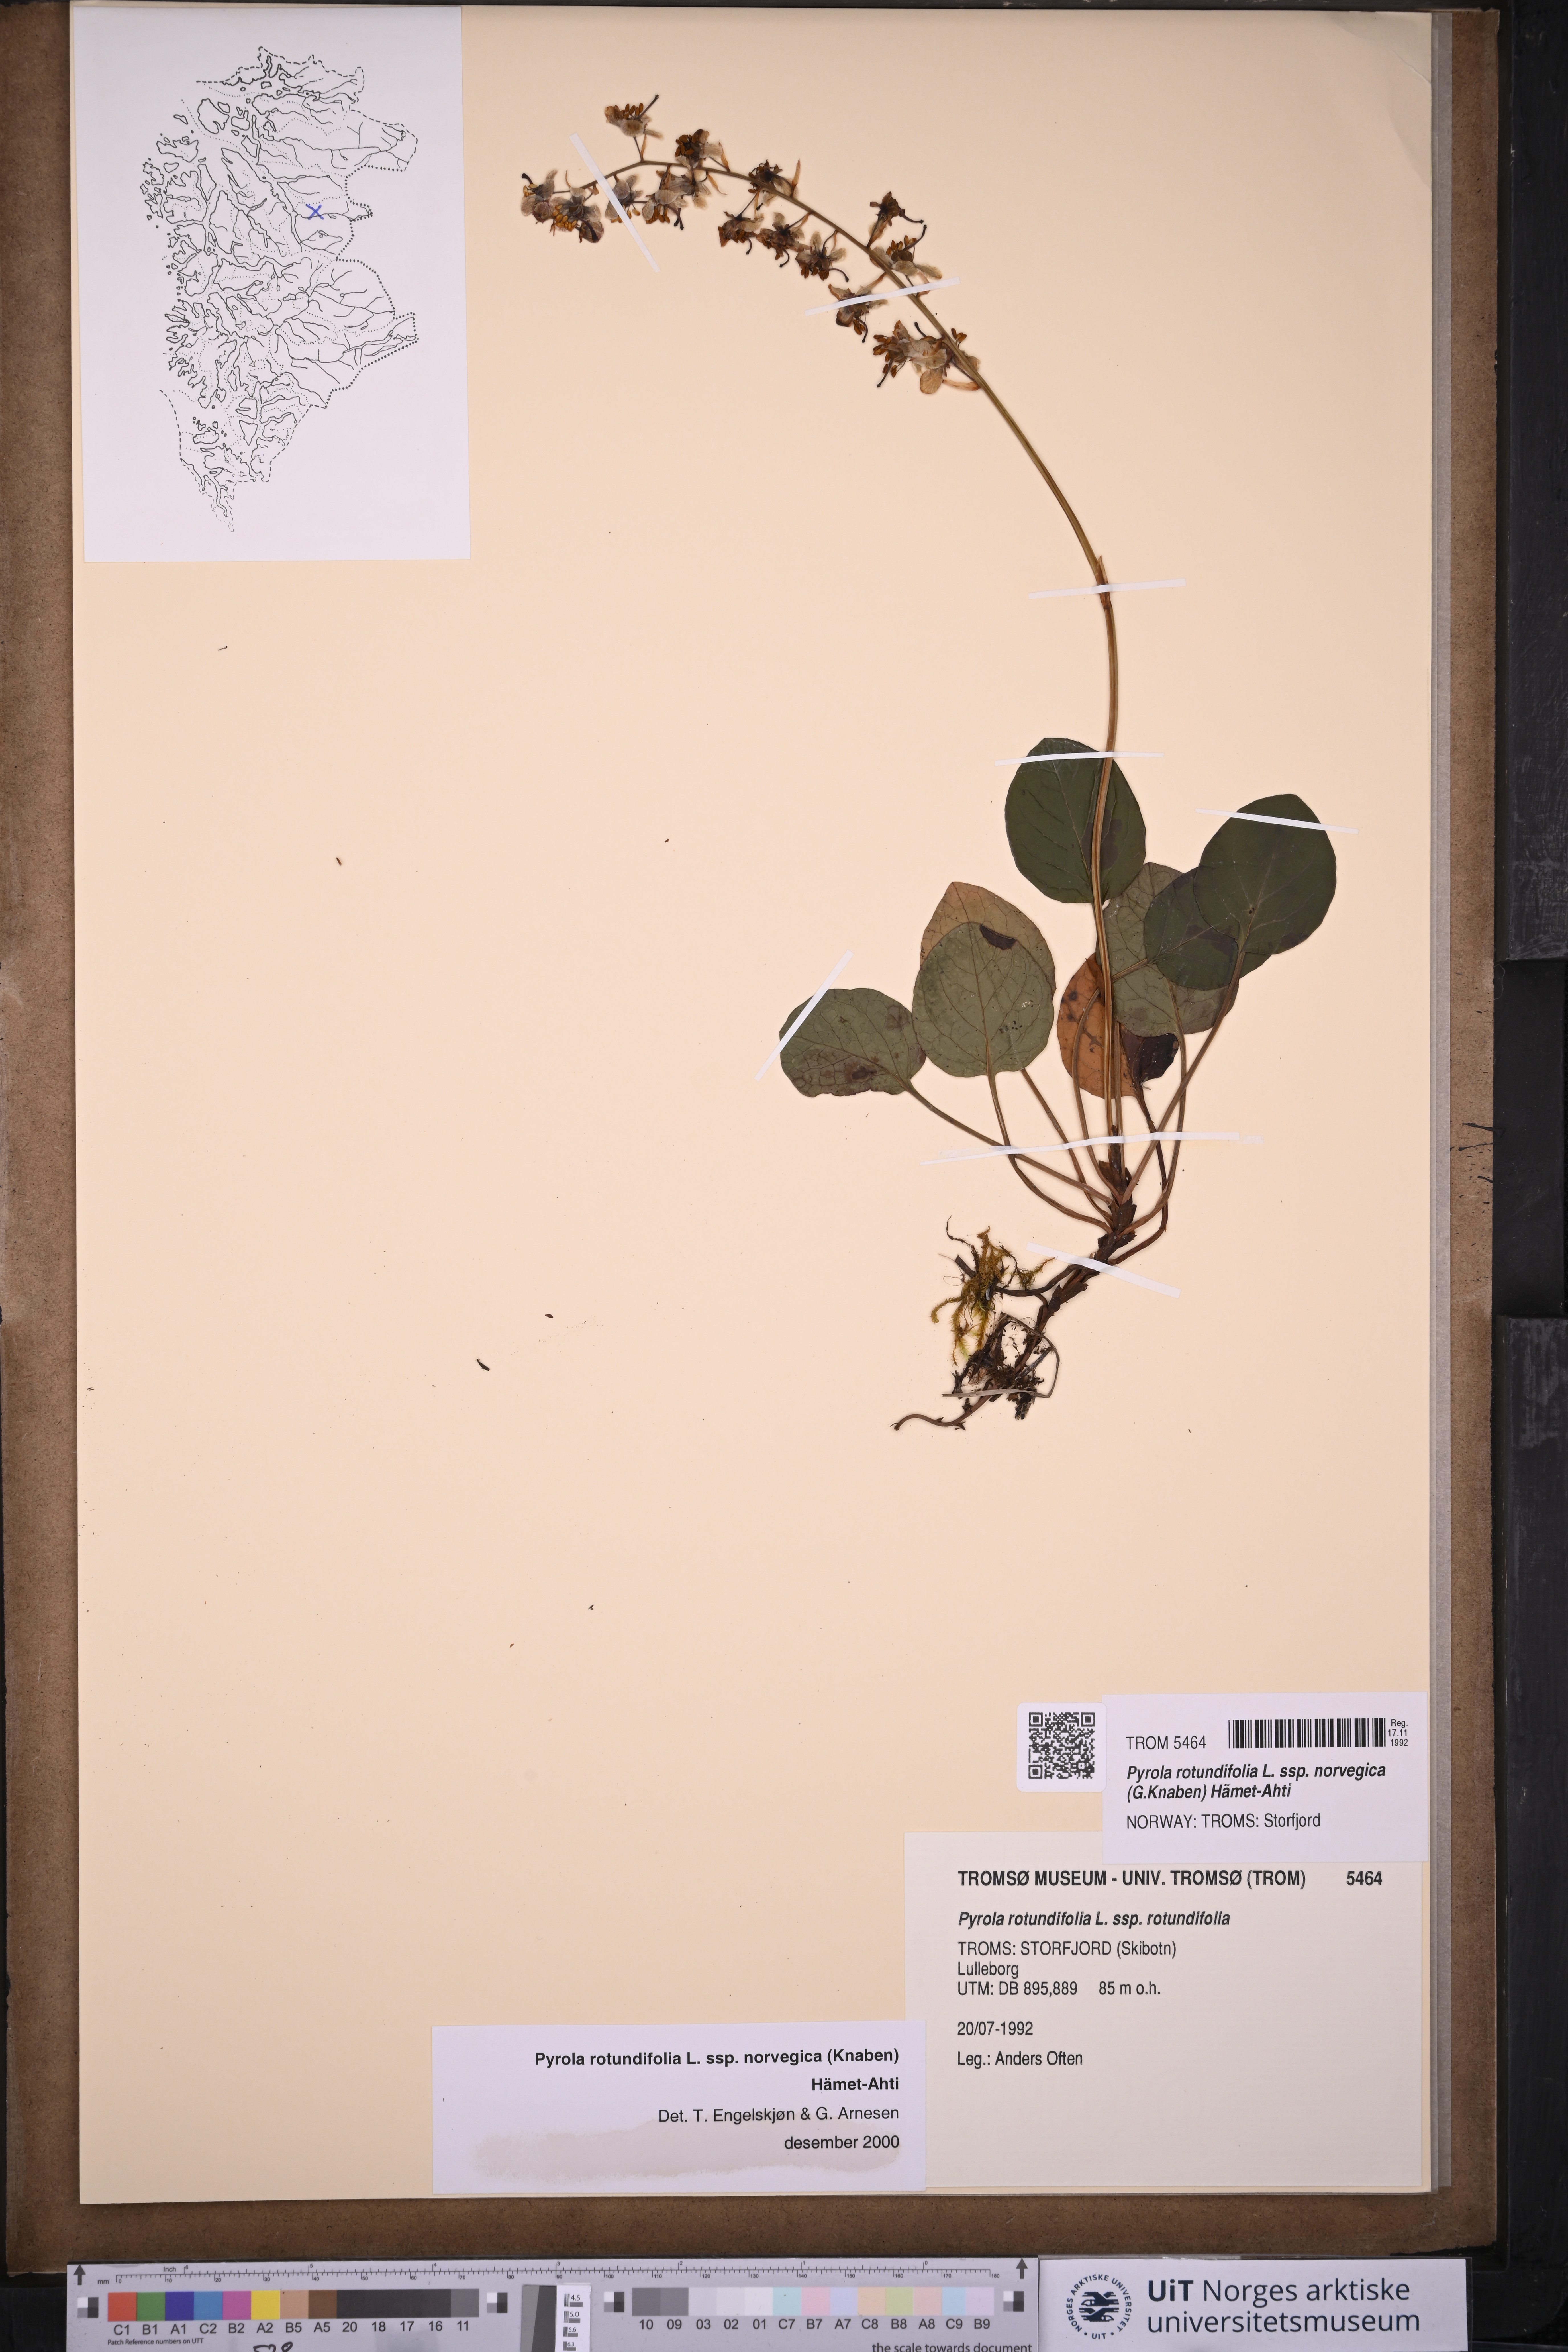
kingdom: Plantae
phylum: Tracheophyta
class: Magnoliopsida
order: Ericales
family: Ericaceae
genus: Pyrola
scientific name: Pyrola rotundifolia
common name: Round-leaved wintergreen
